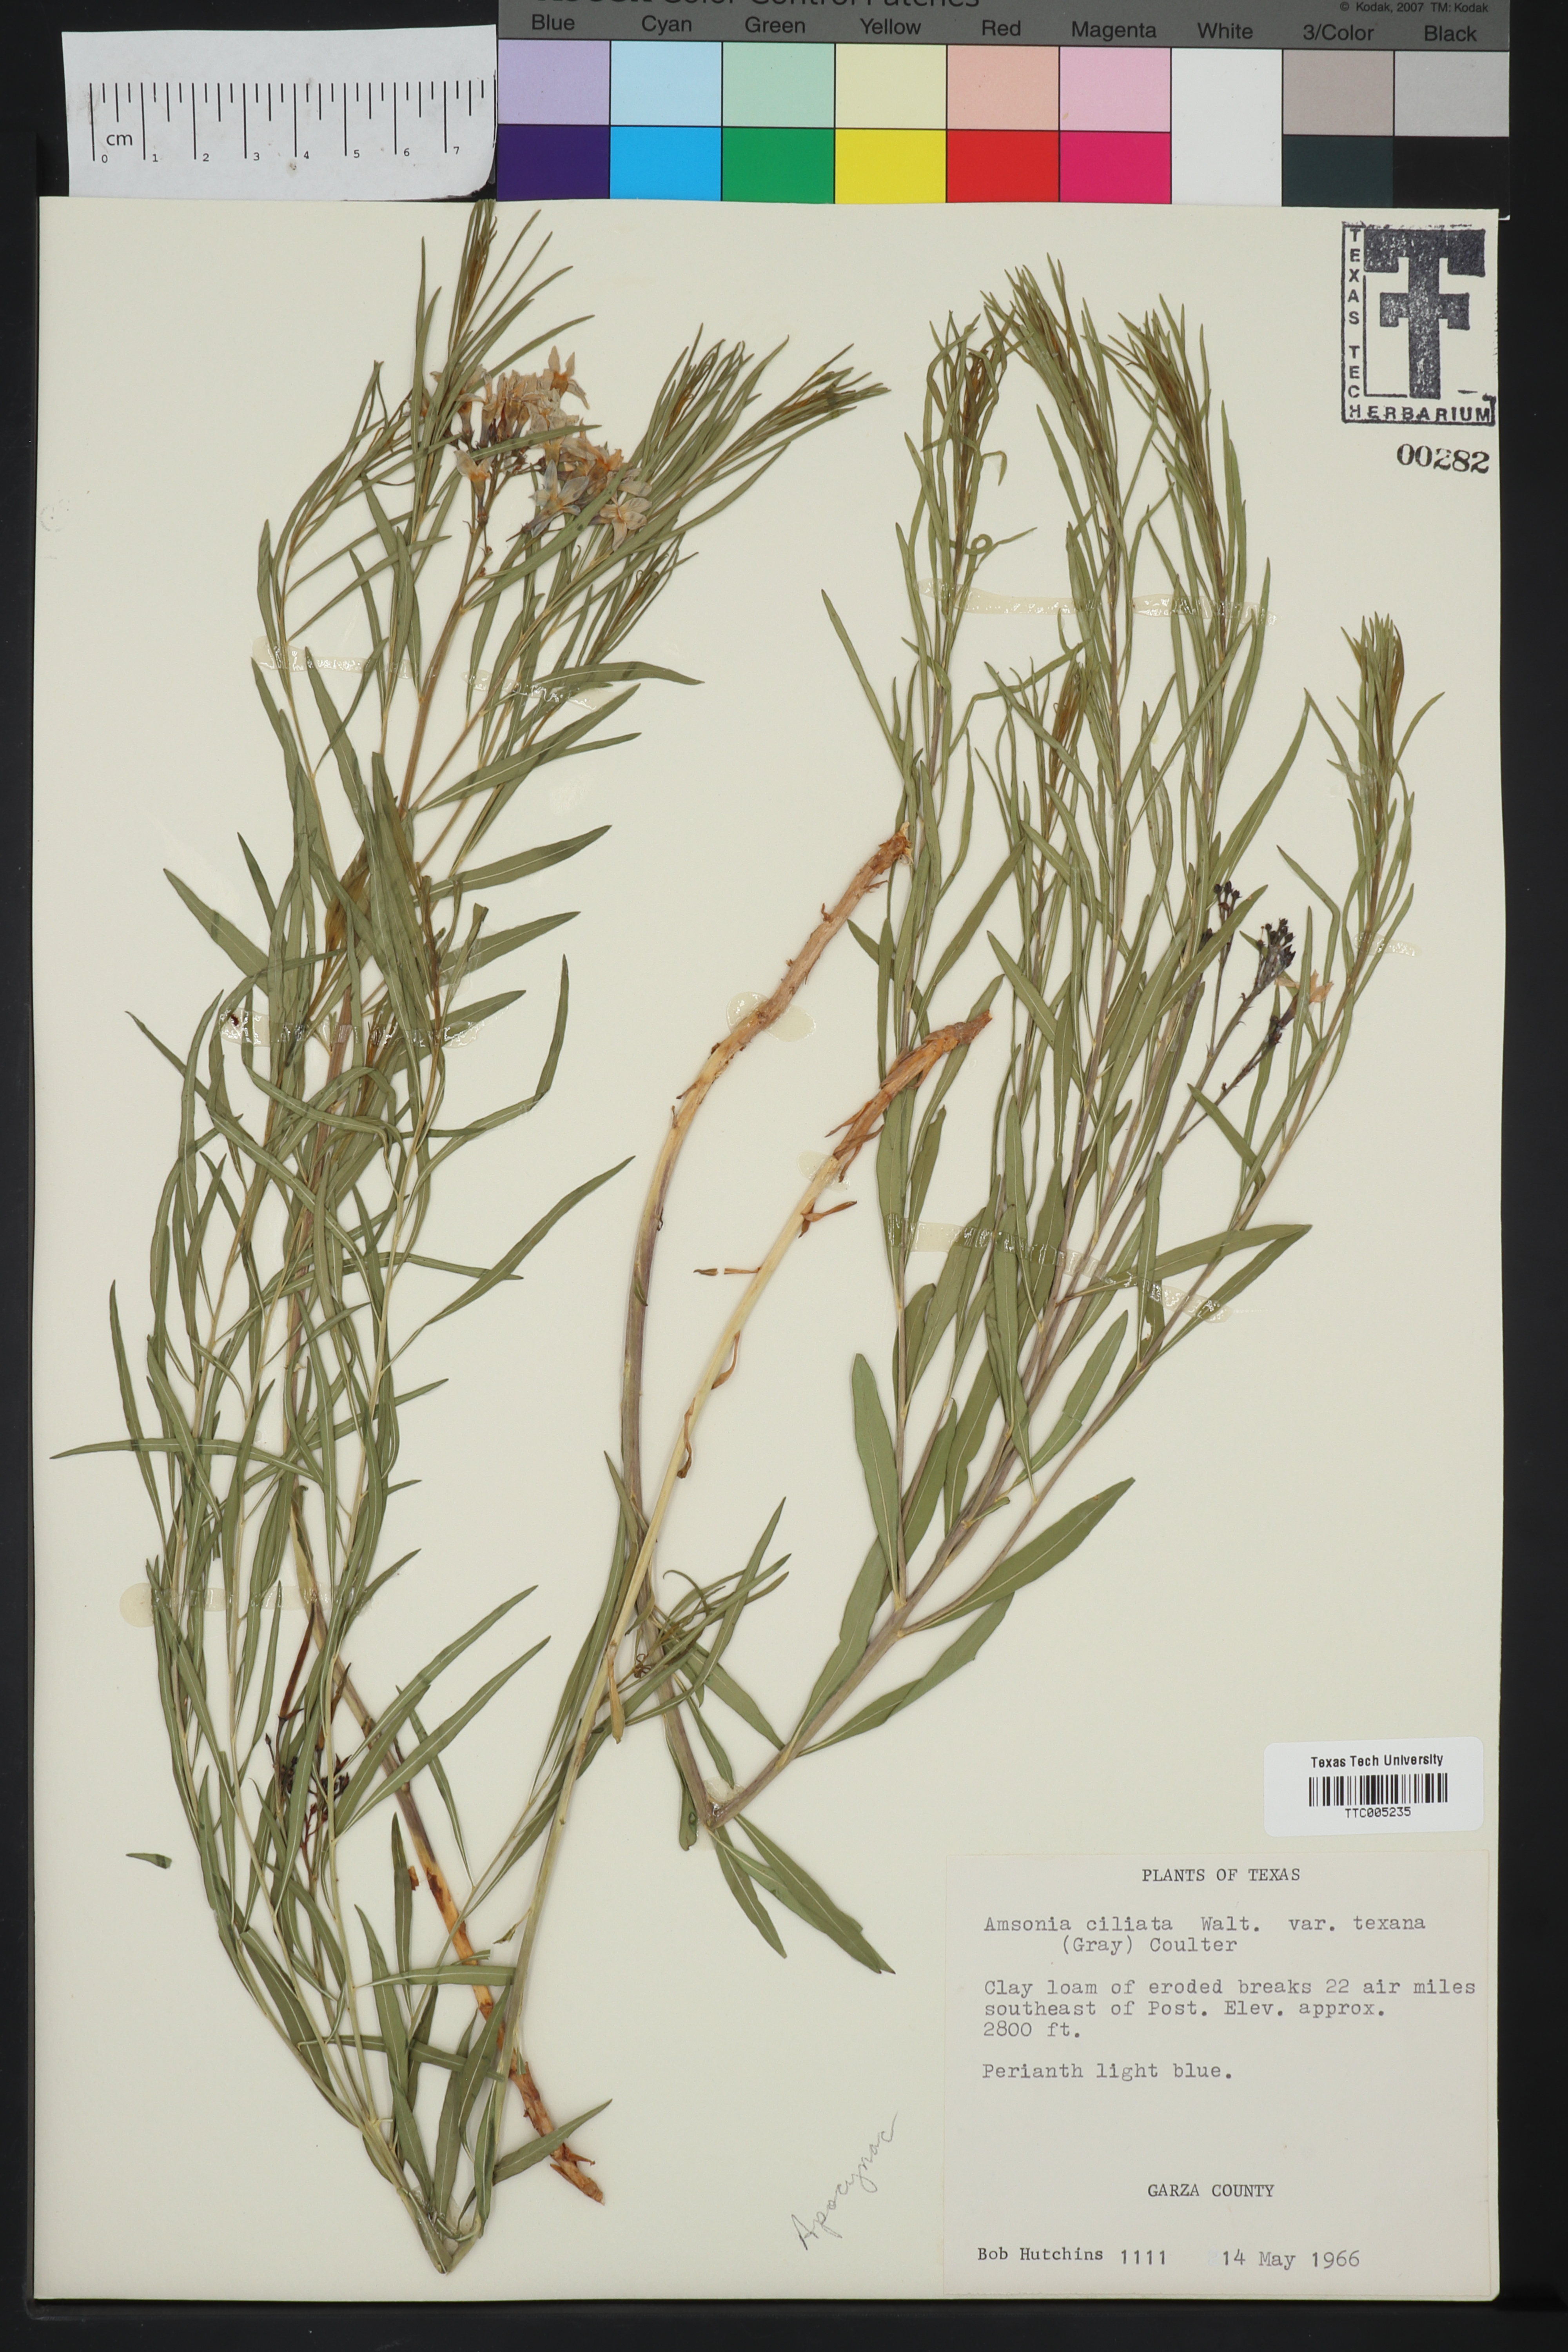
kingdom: Plantae
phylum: Tracheophyta
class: Magnoliopsida
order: Gentianales
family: Apocynaceae
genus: Amsonia
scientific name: Amsonia ciliata
